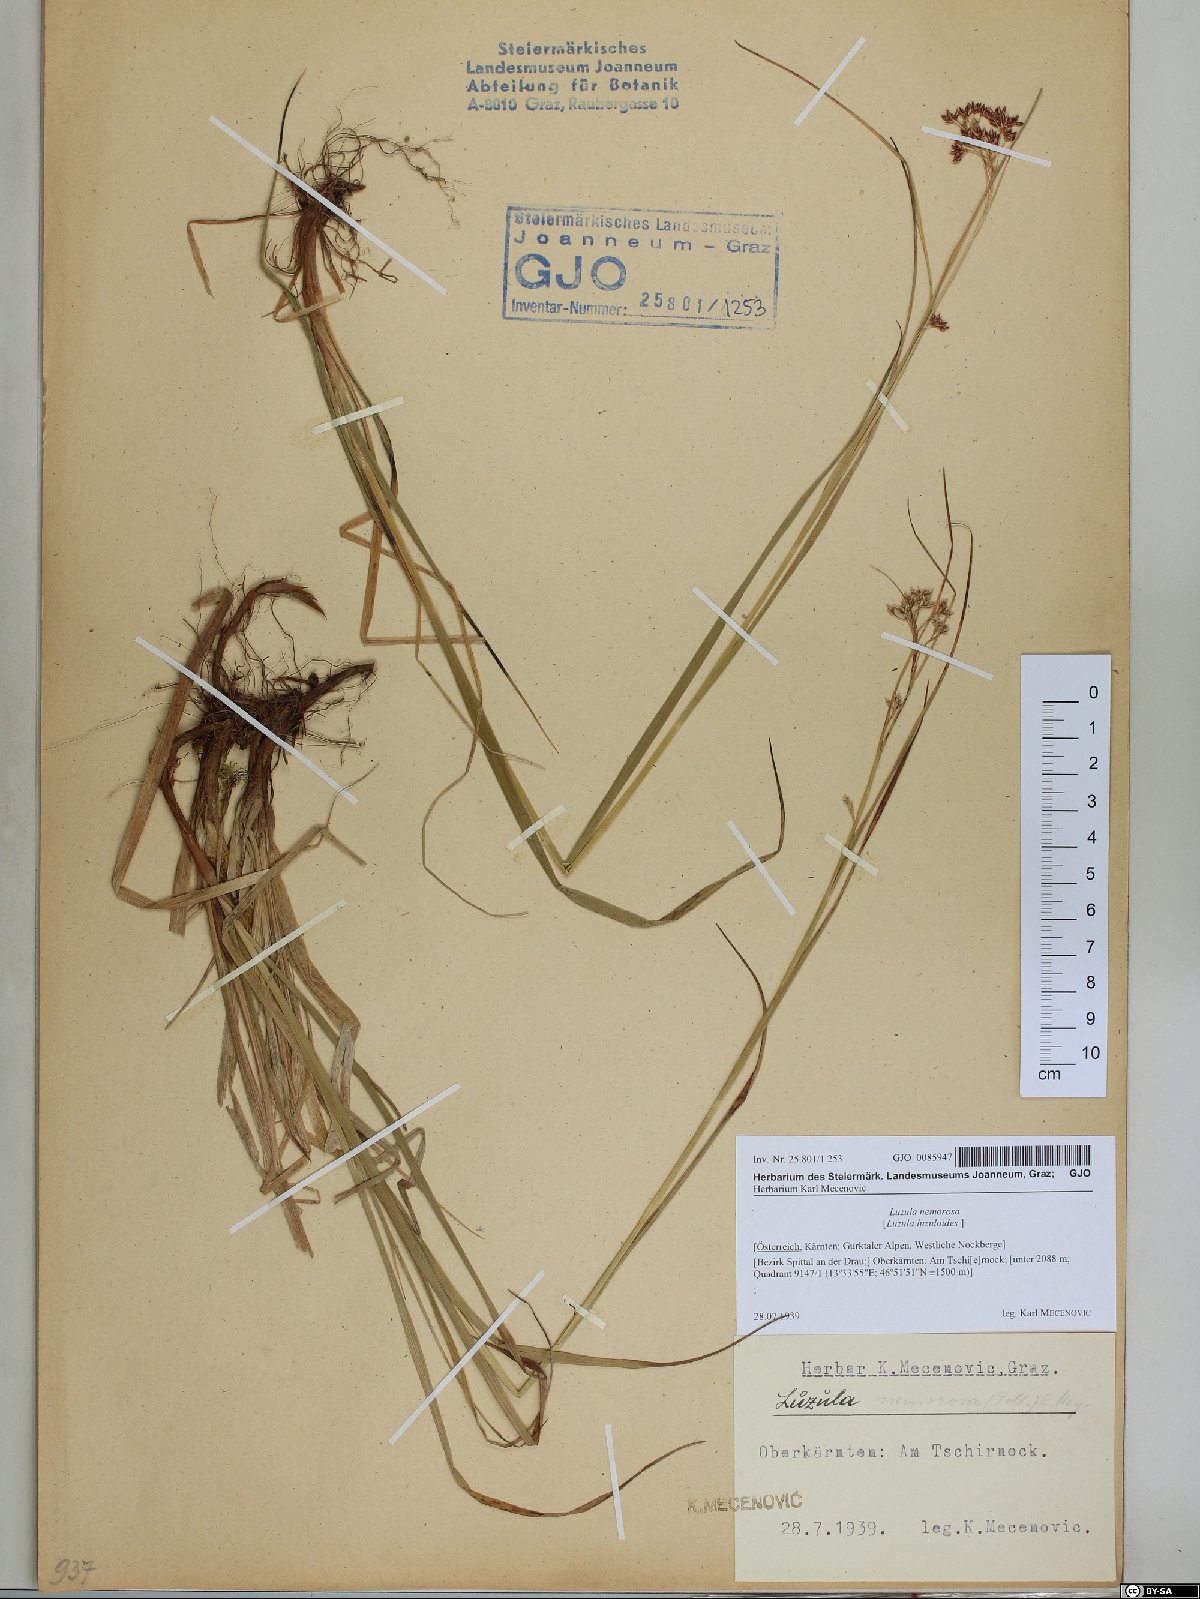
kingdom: Plantae
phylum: Tracheophyta
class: Liliopsida
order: Poales
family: Juncaceae
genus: Luzula
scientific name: Luzula luzuloides
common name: White wood-rush
